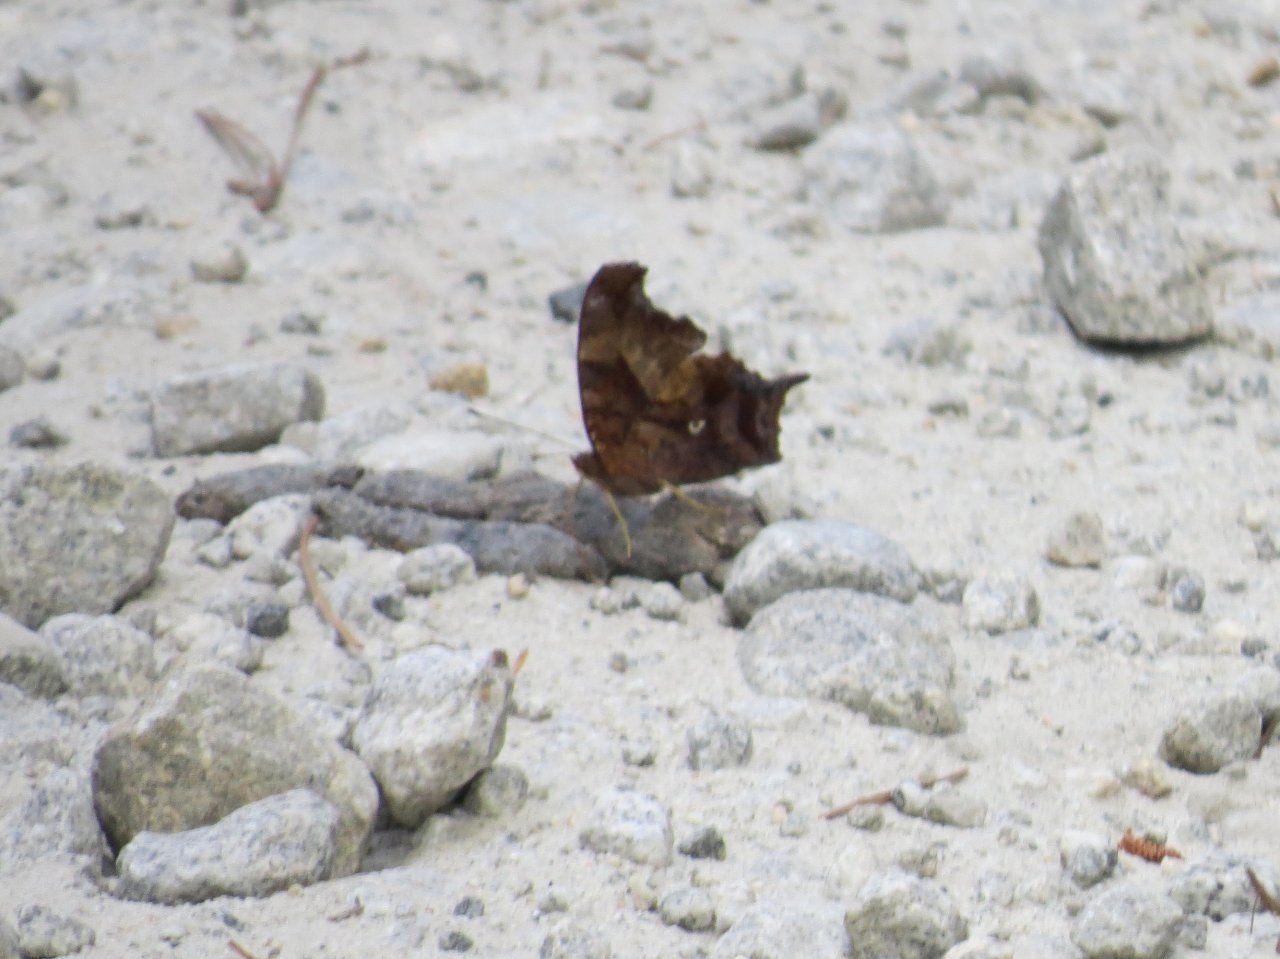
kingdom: Animalia
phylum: Arthropoda
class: Insecta
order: Lepidoptera
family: Nymphalidae
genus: Polygonia
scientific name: Polygonia comma
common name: Eastern Comma
